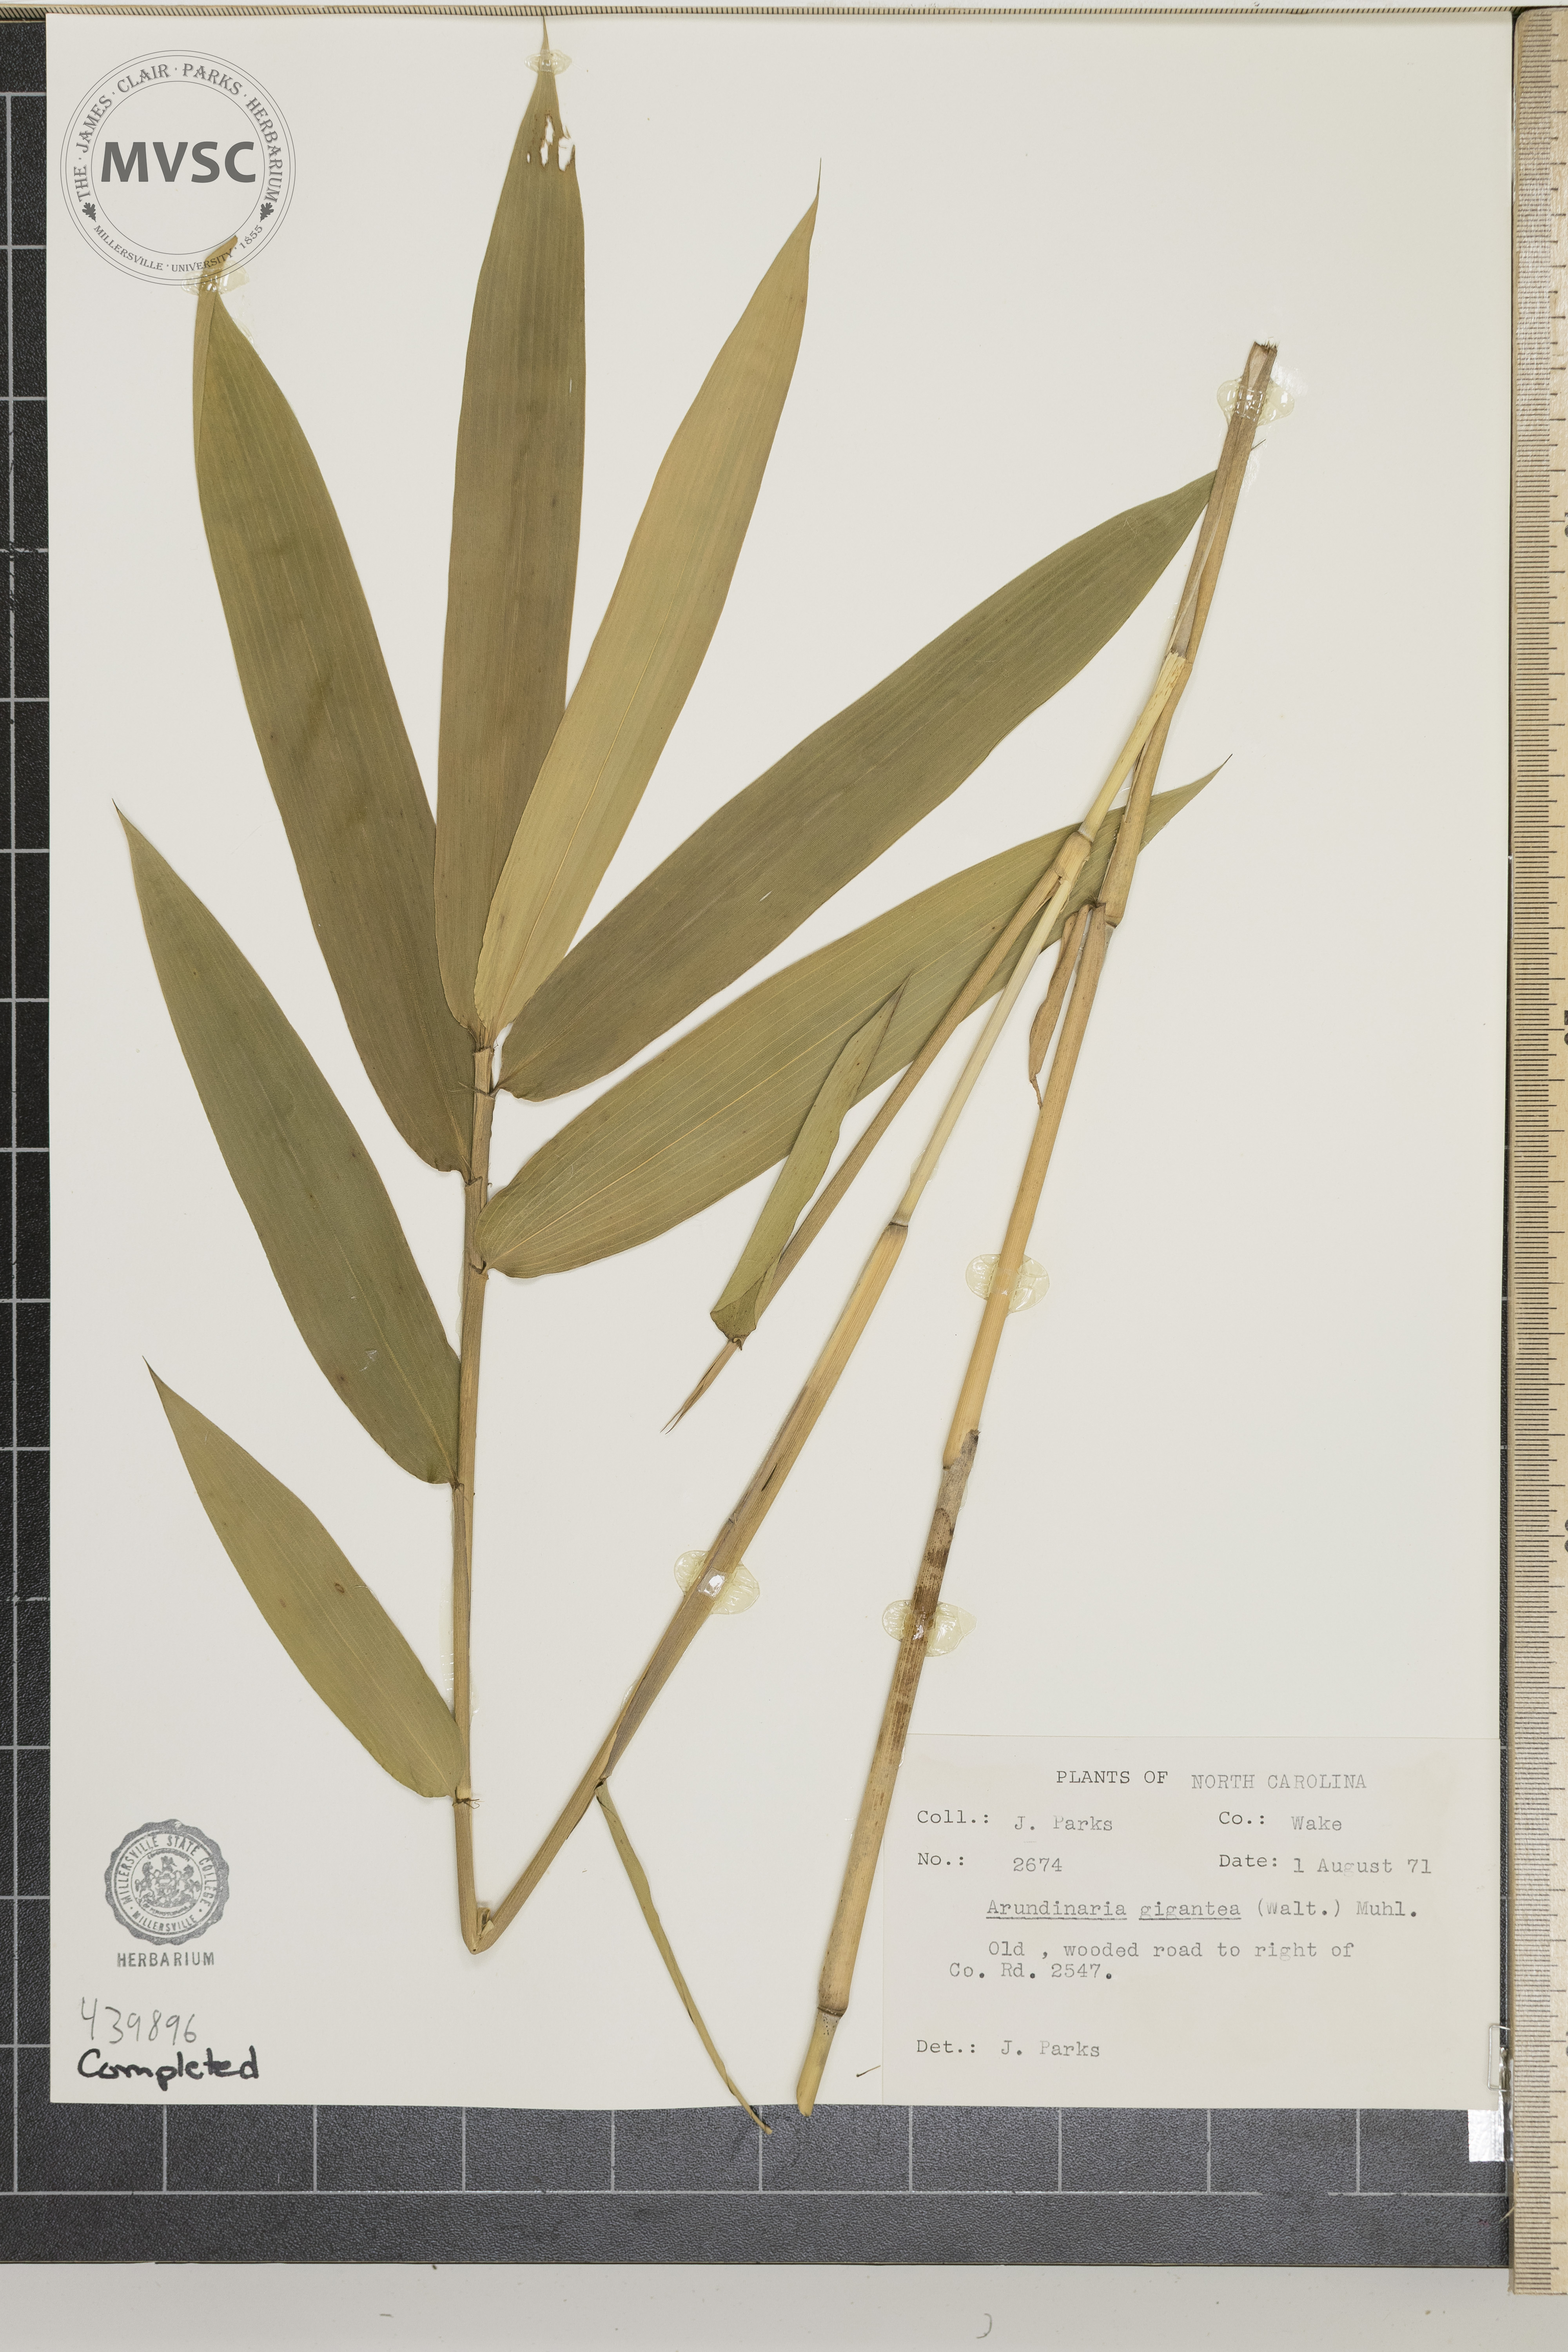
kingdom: Plantae
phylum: Tracheophyta
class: Liliopsida
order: Poales
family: Poaceae
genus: Arundinaria
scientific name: Arundinaria gigantea
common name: Giant cane
